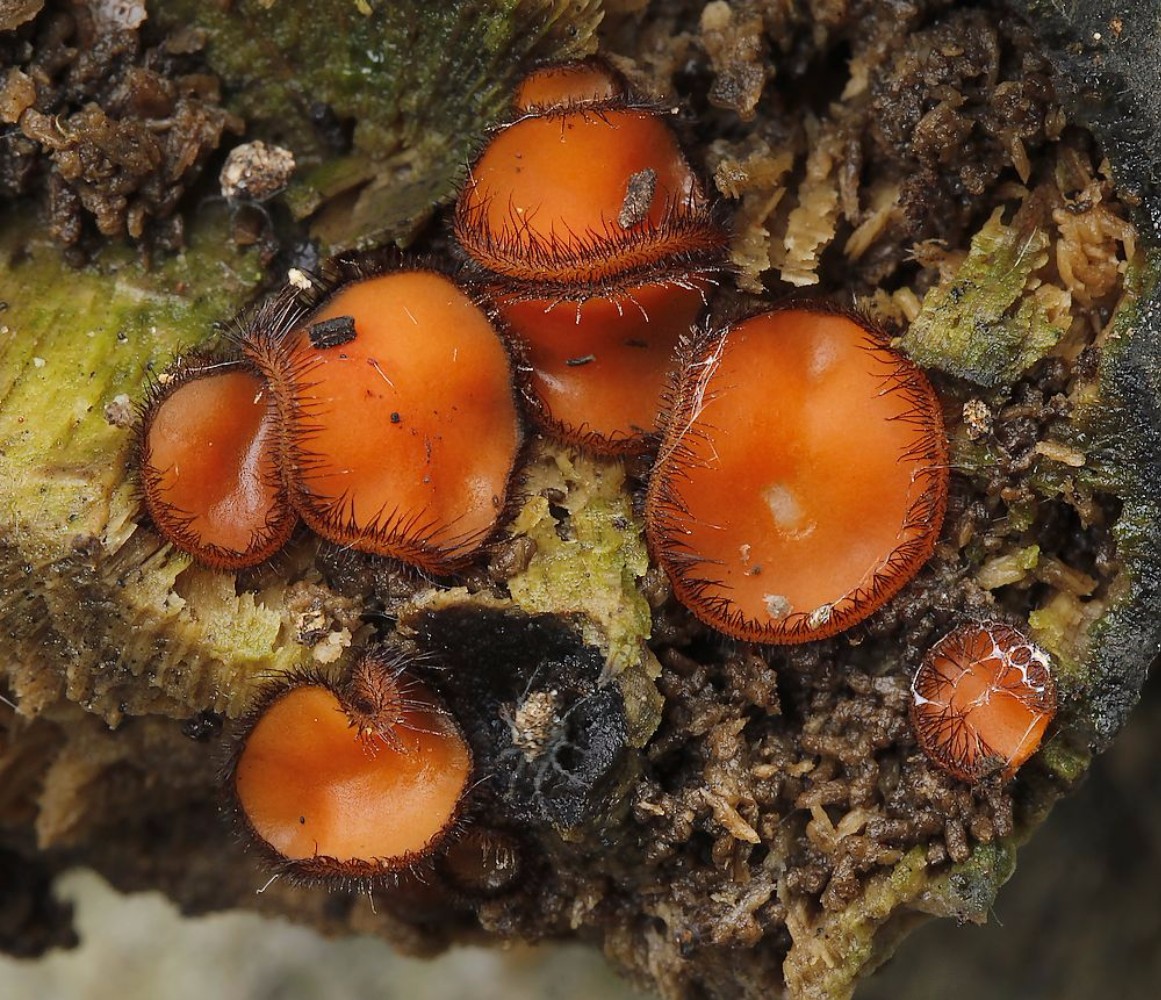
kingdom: Fungi
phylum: Ascomycota
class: Pezizomycetes
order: Pezizales
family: Pyronemataceae
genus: Scutellinia
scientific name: Scutellinia scutellata
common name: frynset skjoldbæger
